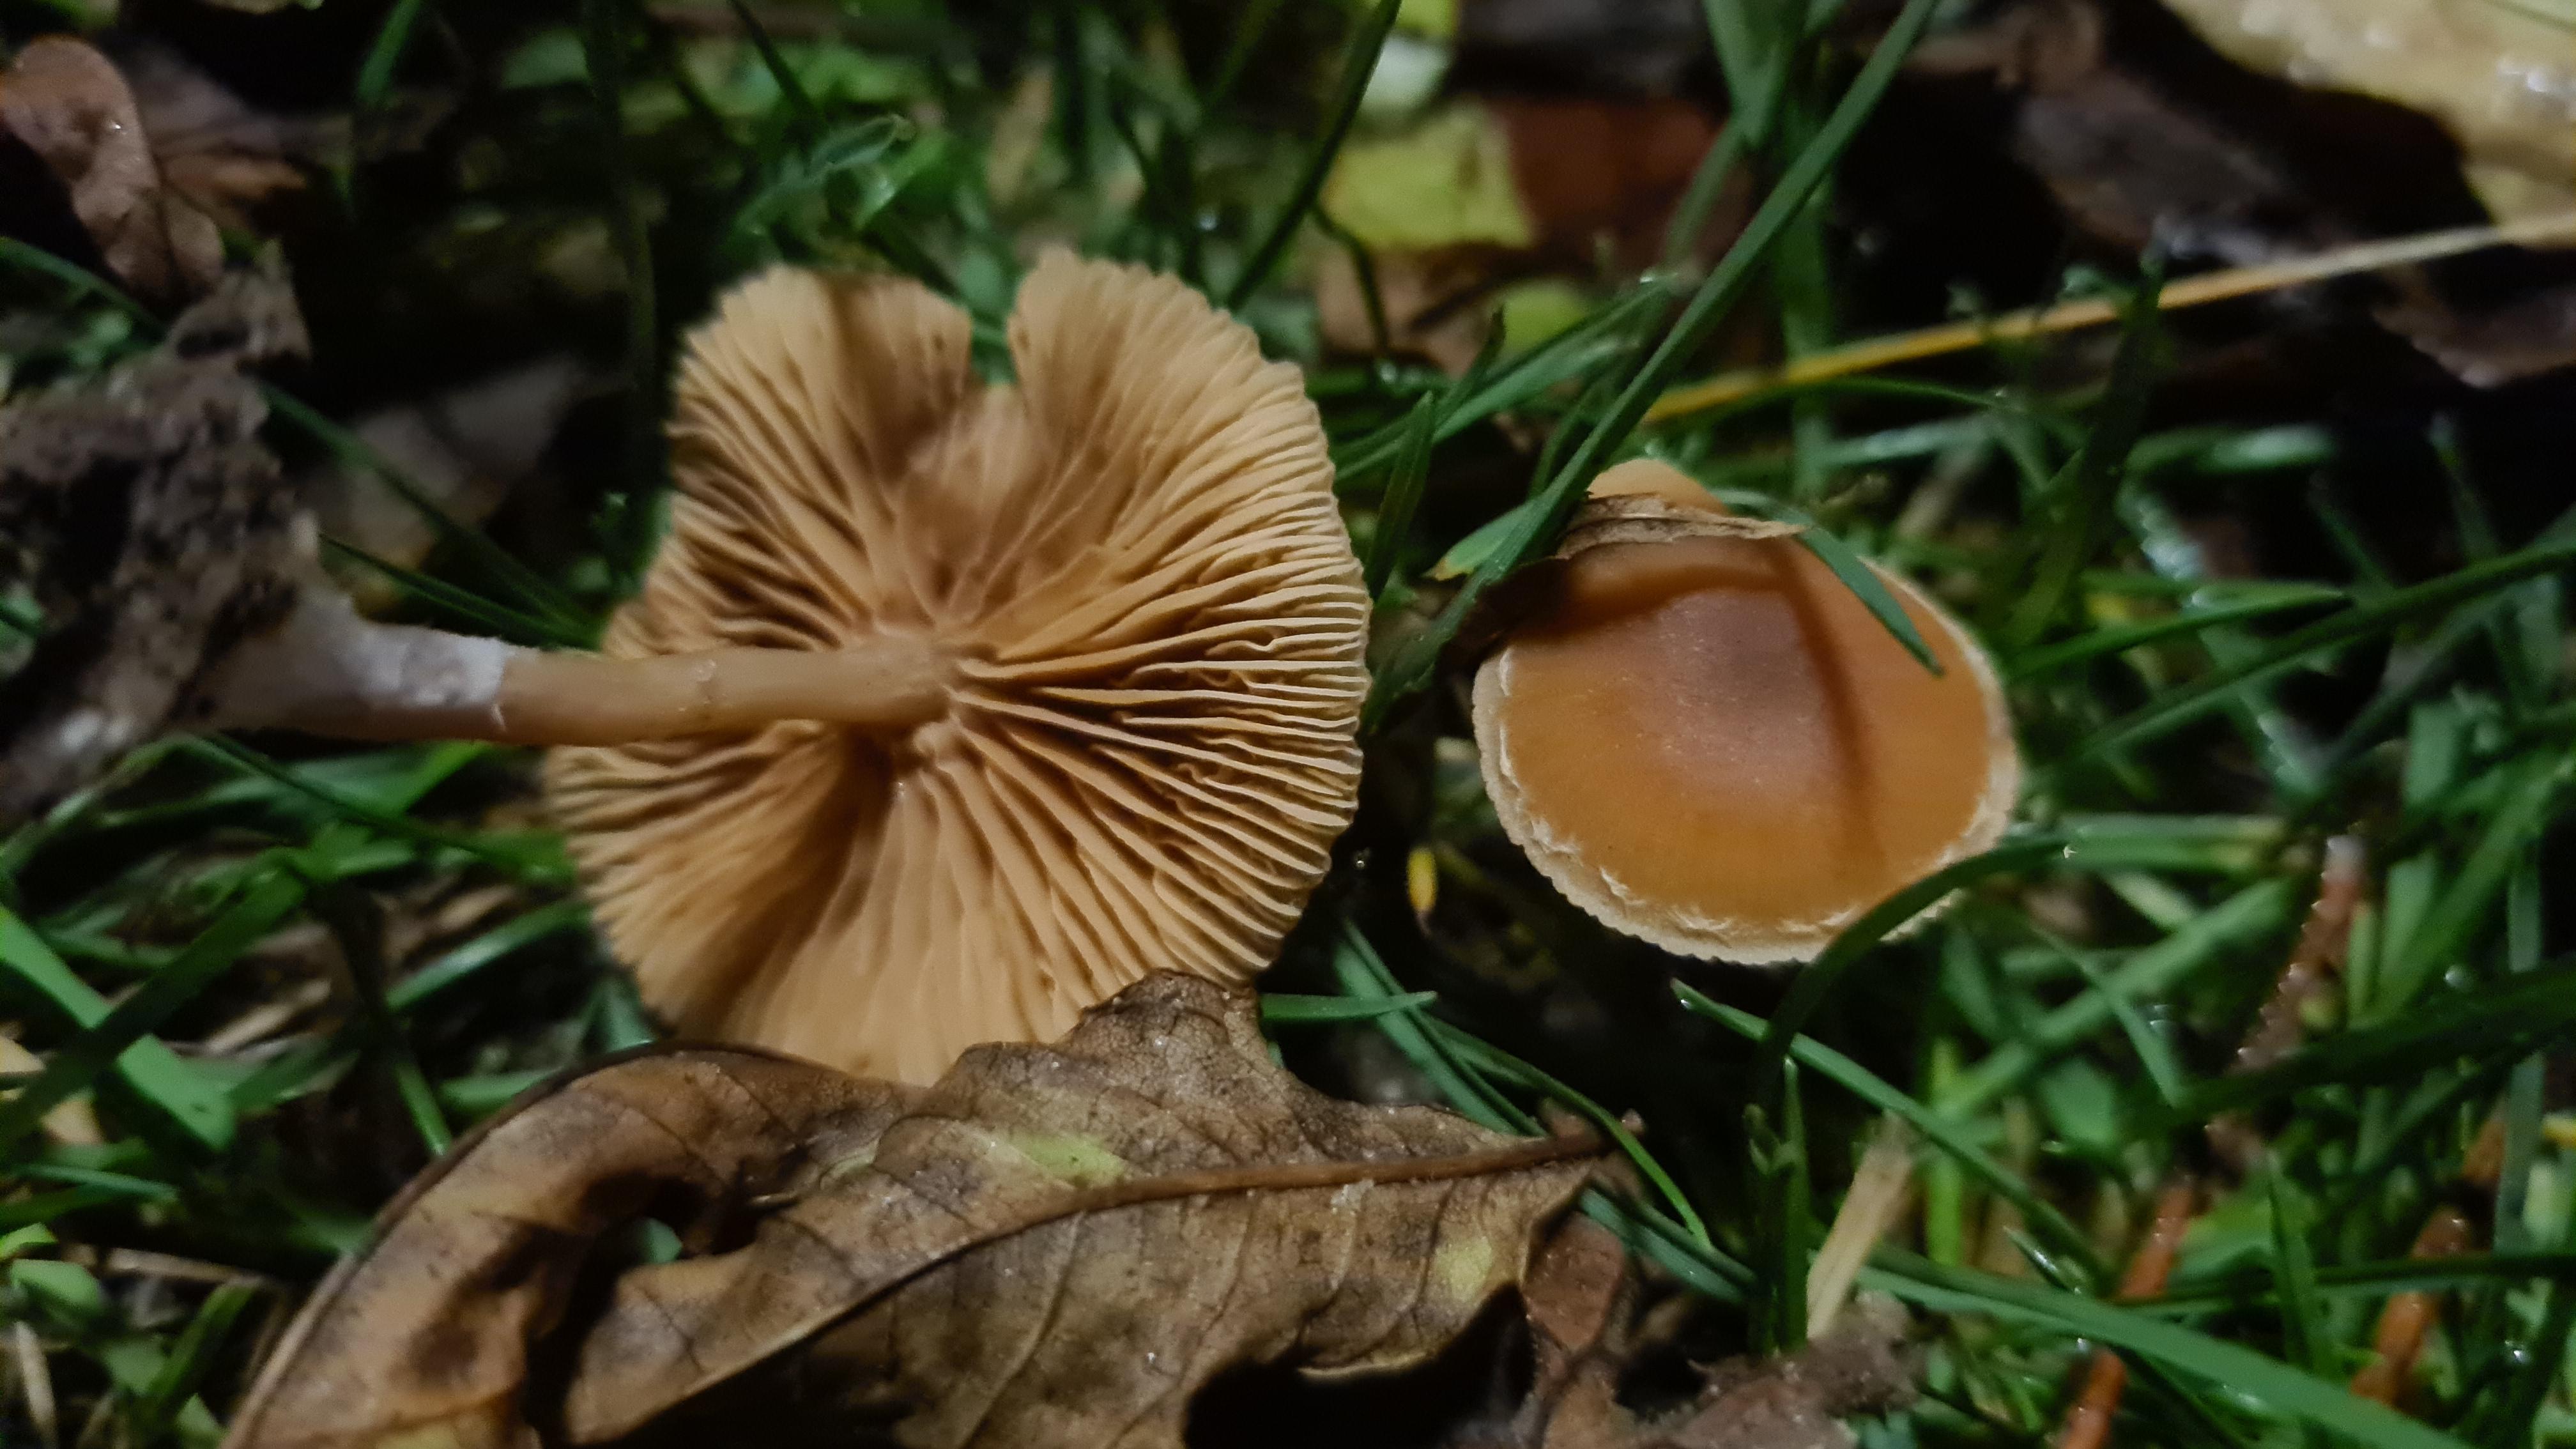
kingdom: Fungi
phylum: Basidiomycota
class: Agaricomycetes
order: Agaricales
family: Tubariaceae
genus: Tubaria
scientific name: Tubaria furfuracea
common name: kliddet fnughat
